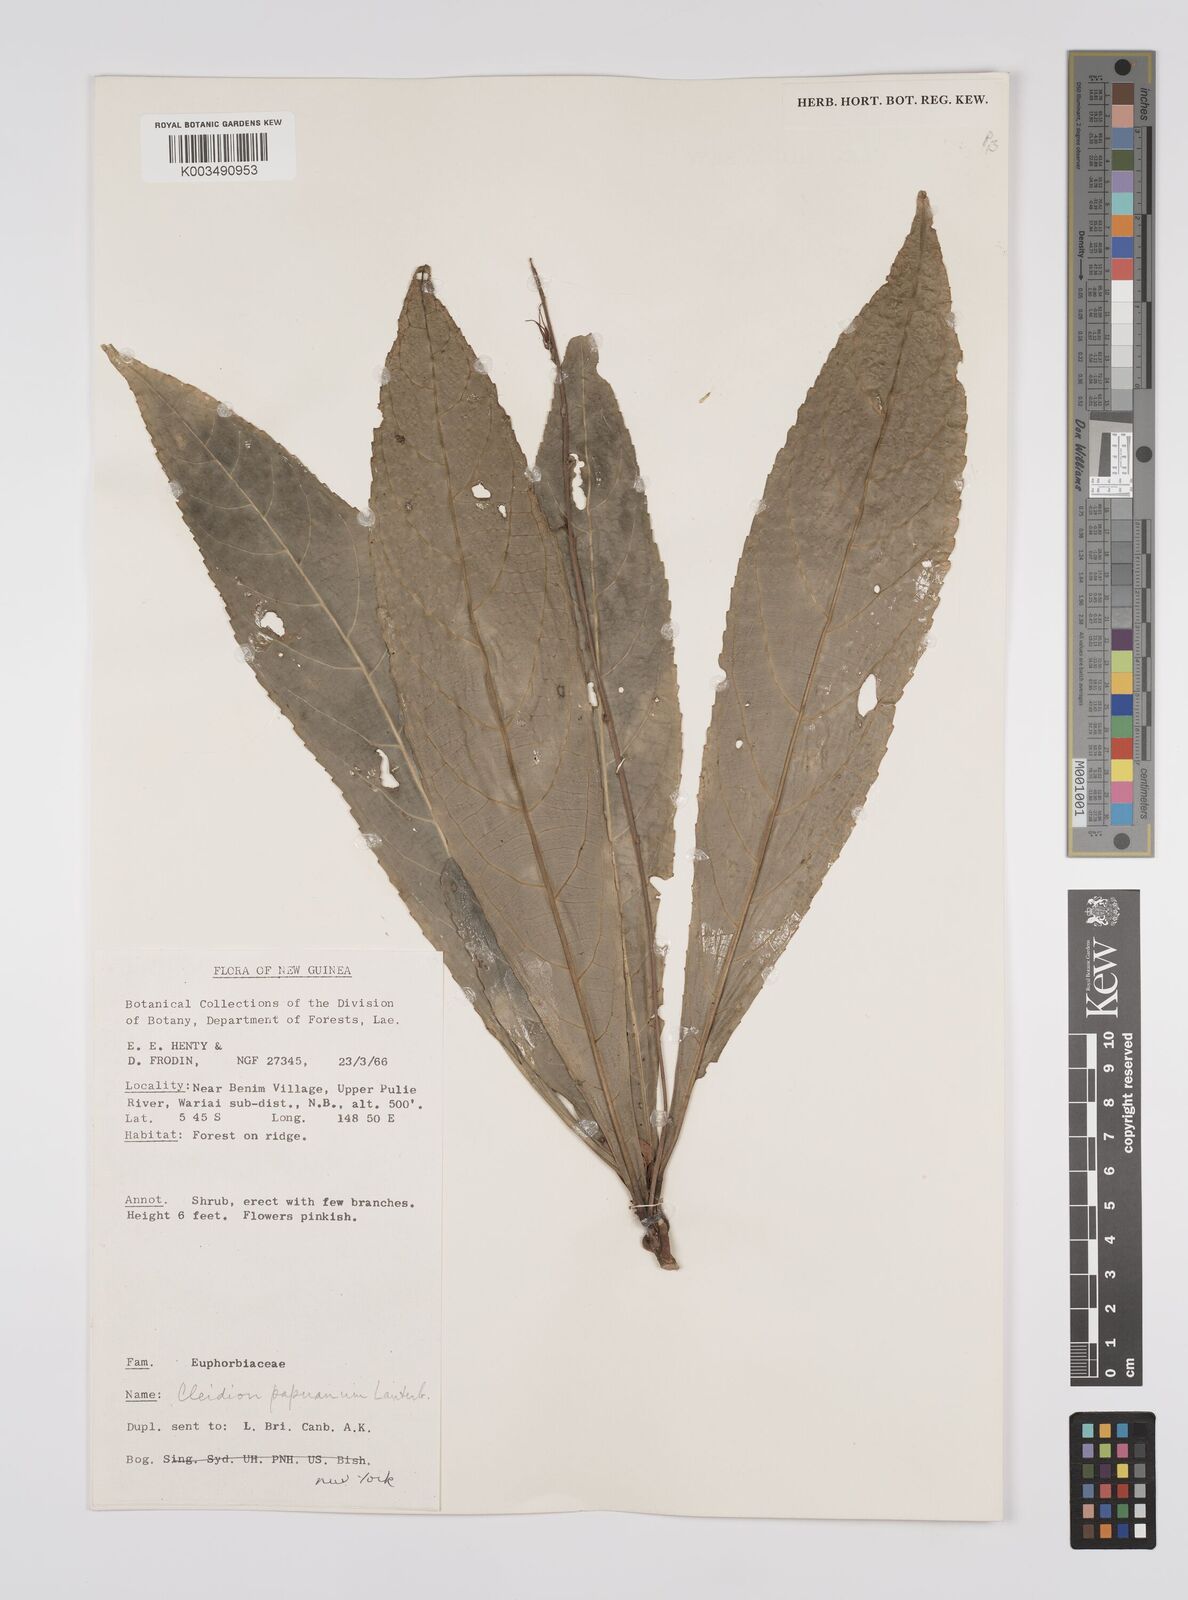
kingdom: Plantae
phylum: Tracheophyta
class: Magnoliopsida
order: Malpighiales
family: Euphorbiaceae
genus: Cleidion
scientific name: Cleidion papuanum
